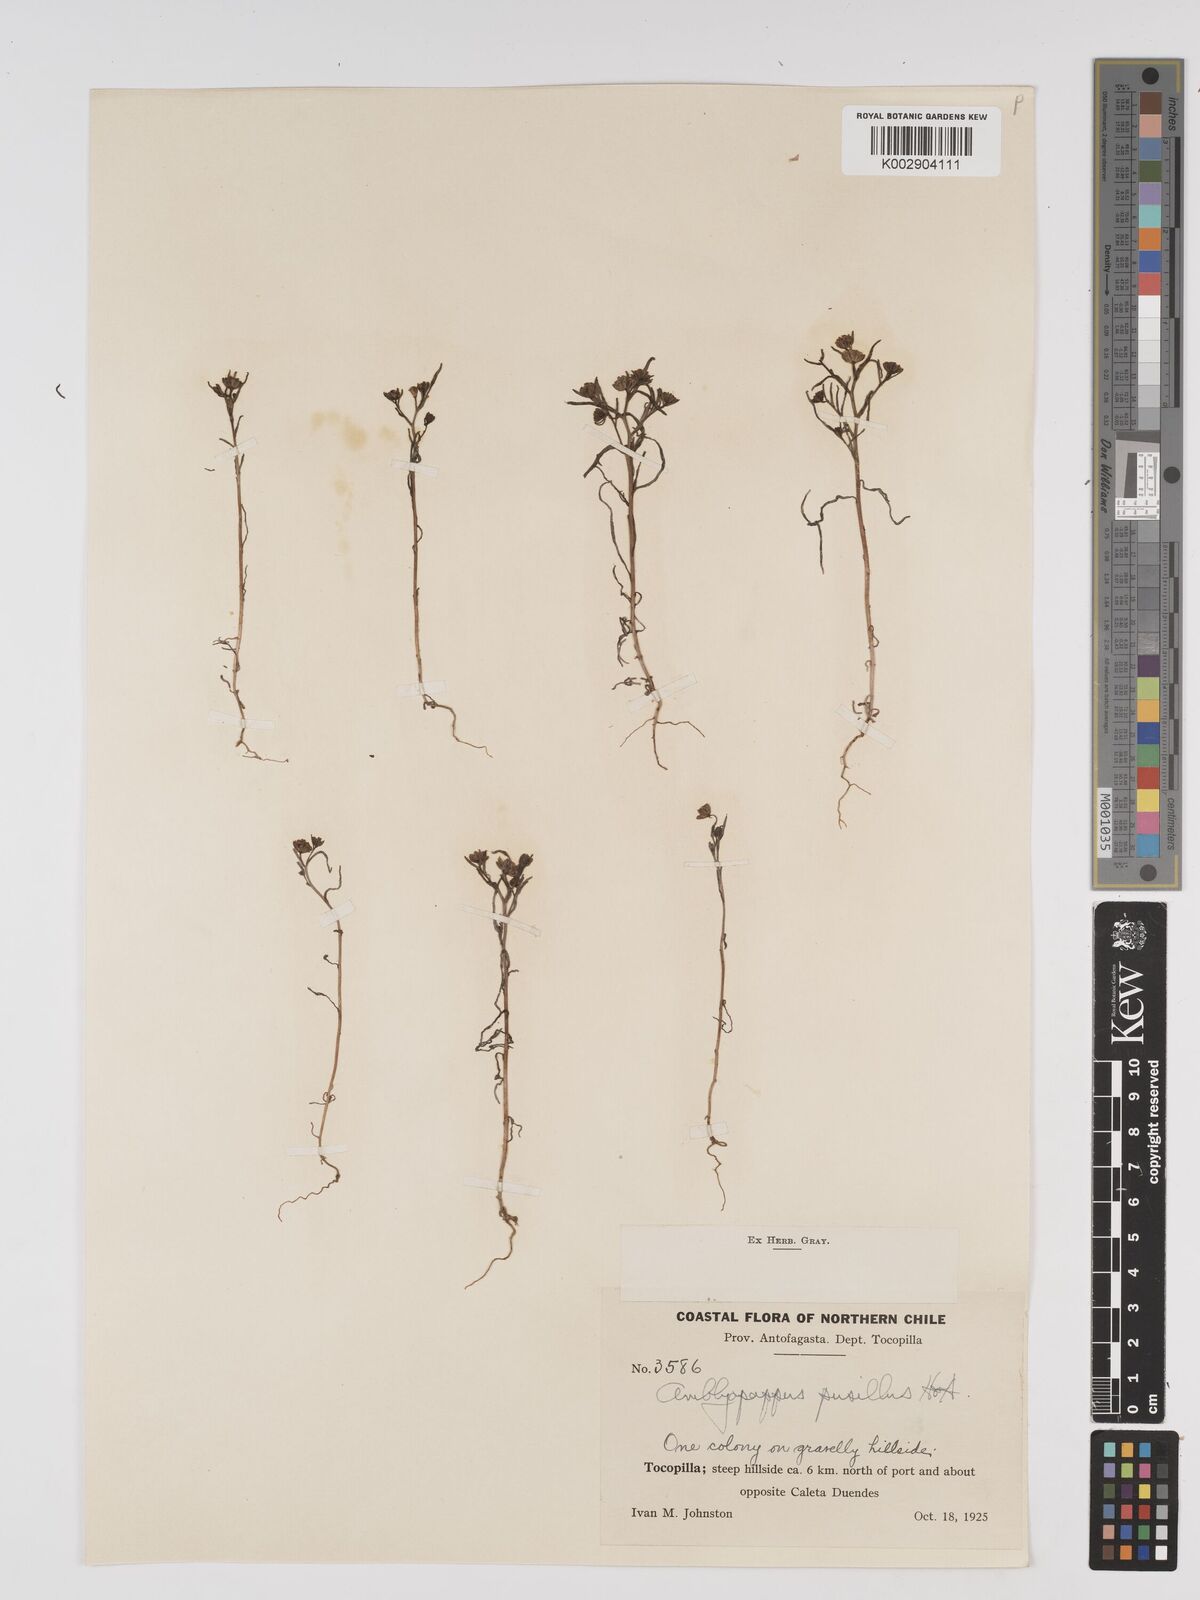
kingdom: Plantae
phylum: Tracheophyta
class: Magnoliopsida
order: Asterales
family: Asteraceae
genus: Amblyopappus
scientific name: Amblyopappus pusillus
